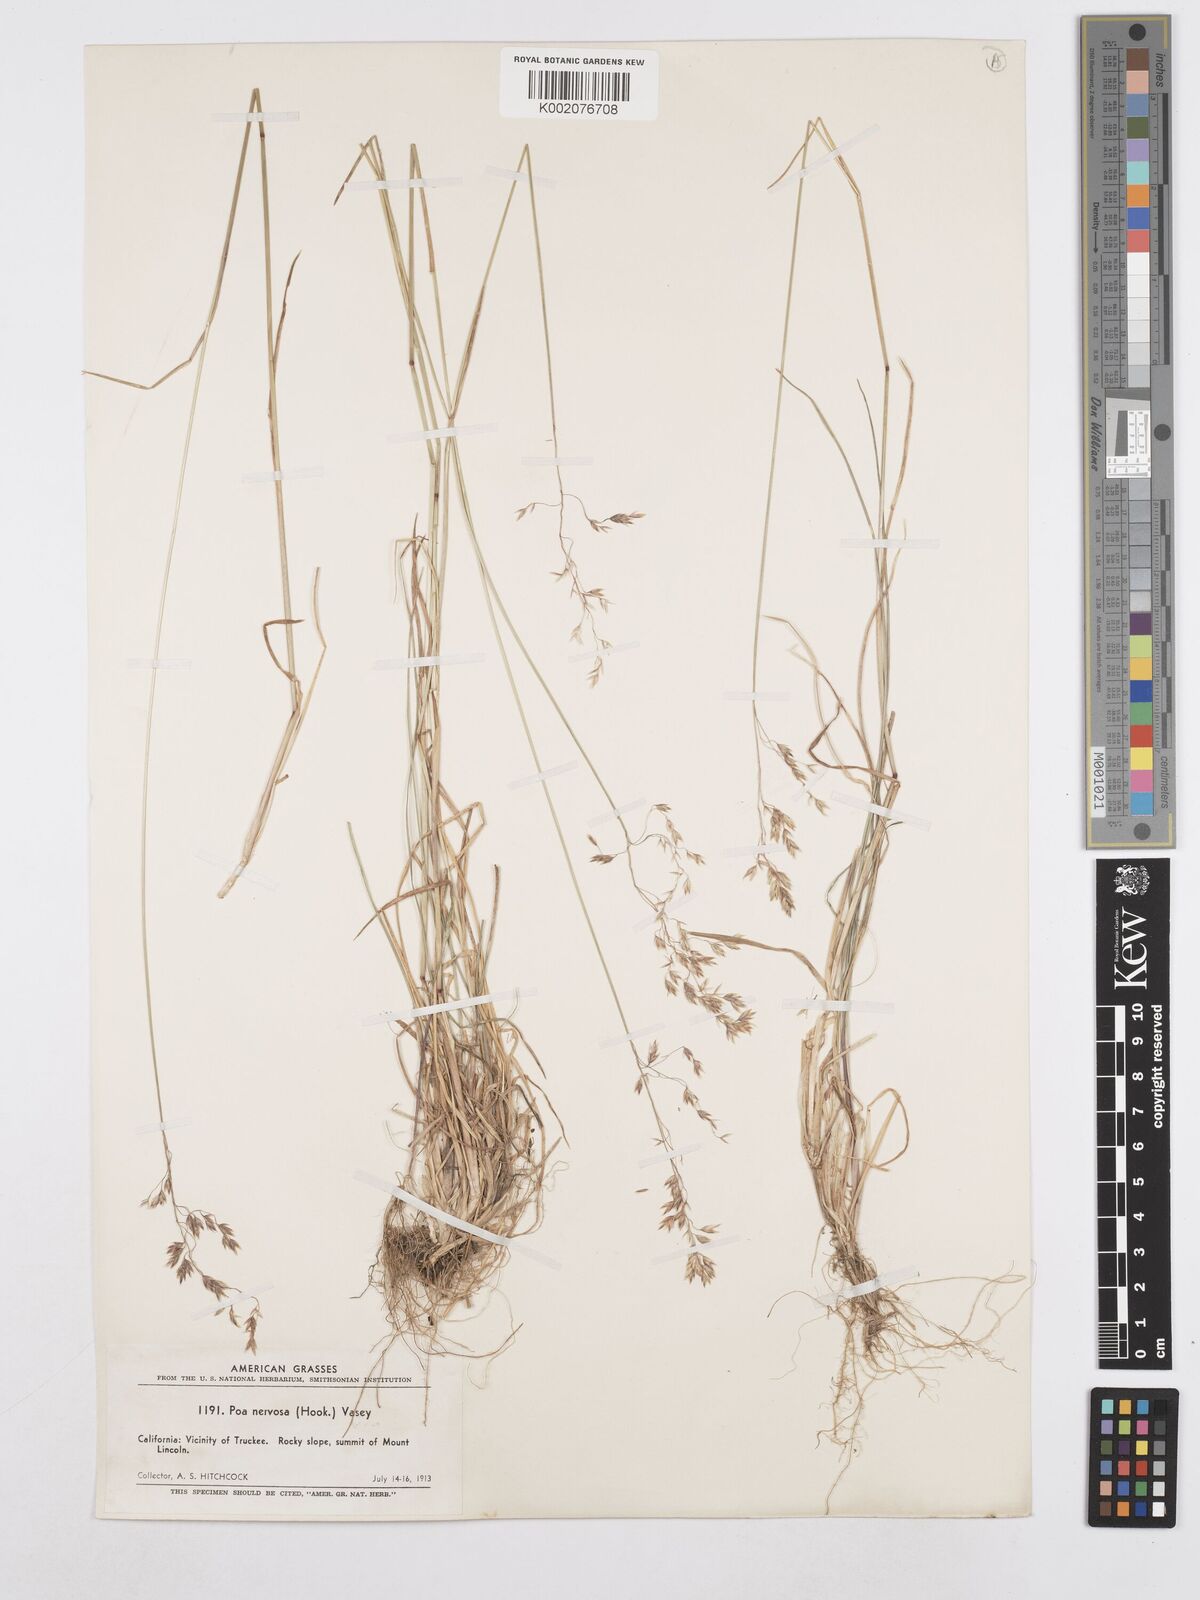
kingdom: Plantae
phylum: Tracheophyta
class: Liliopsida
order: Poales
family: Poaceae
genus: Poa
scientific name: Poa nervosa
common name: Hooker's bluegrass
